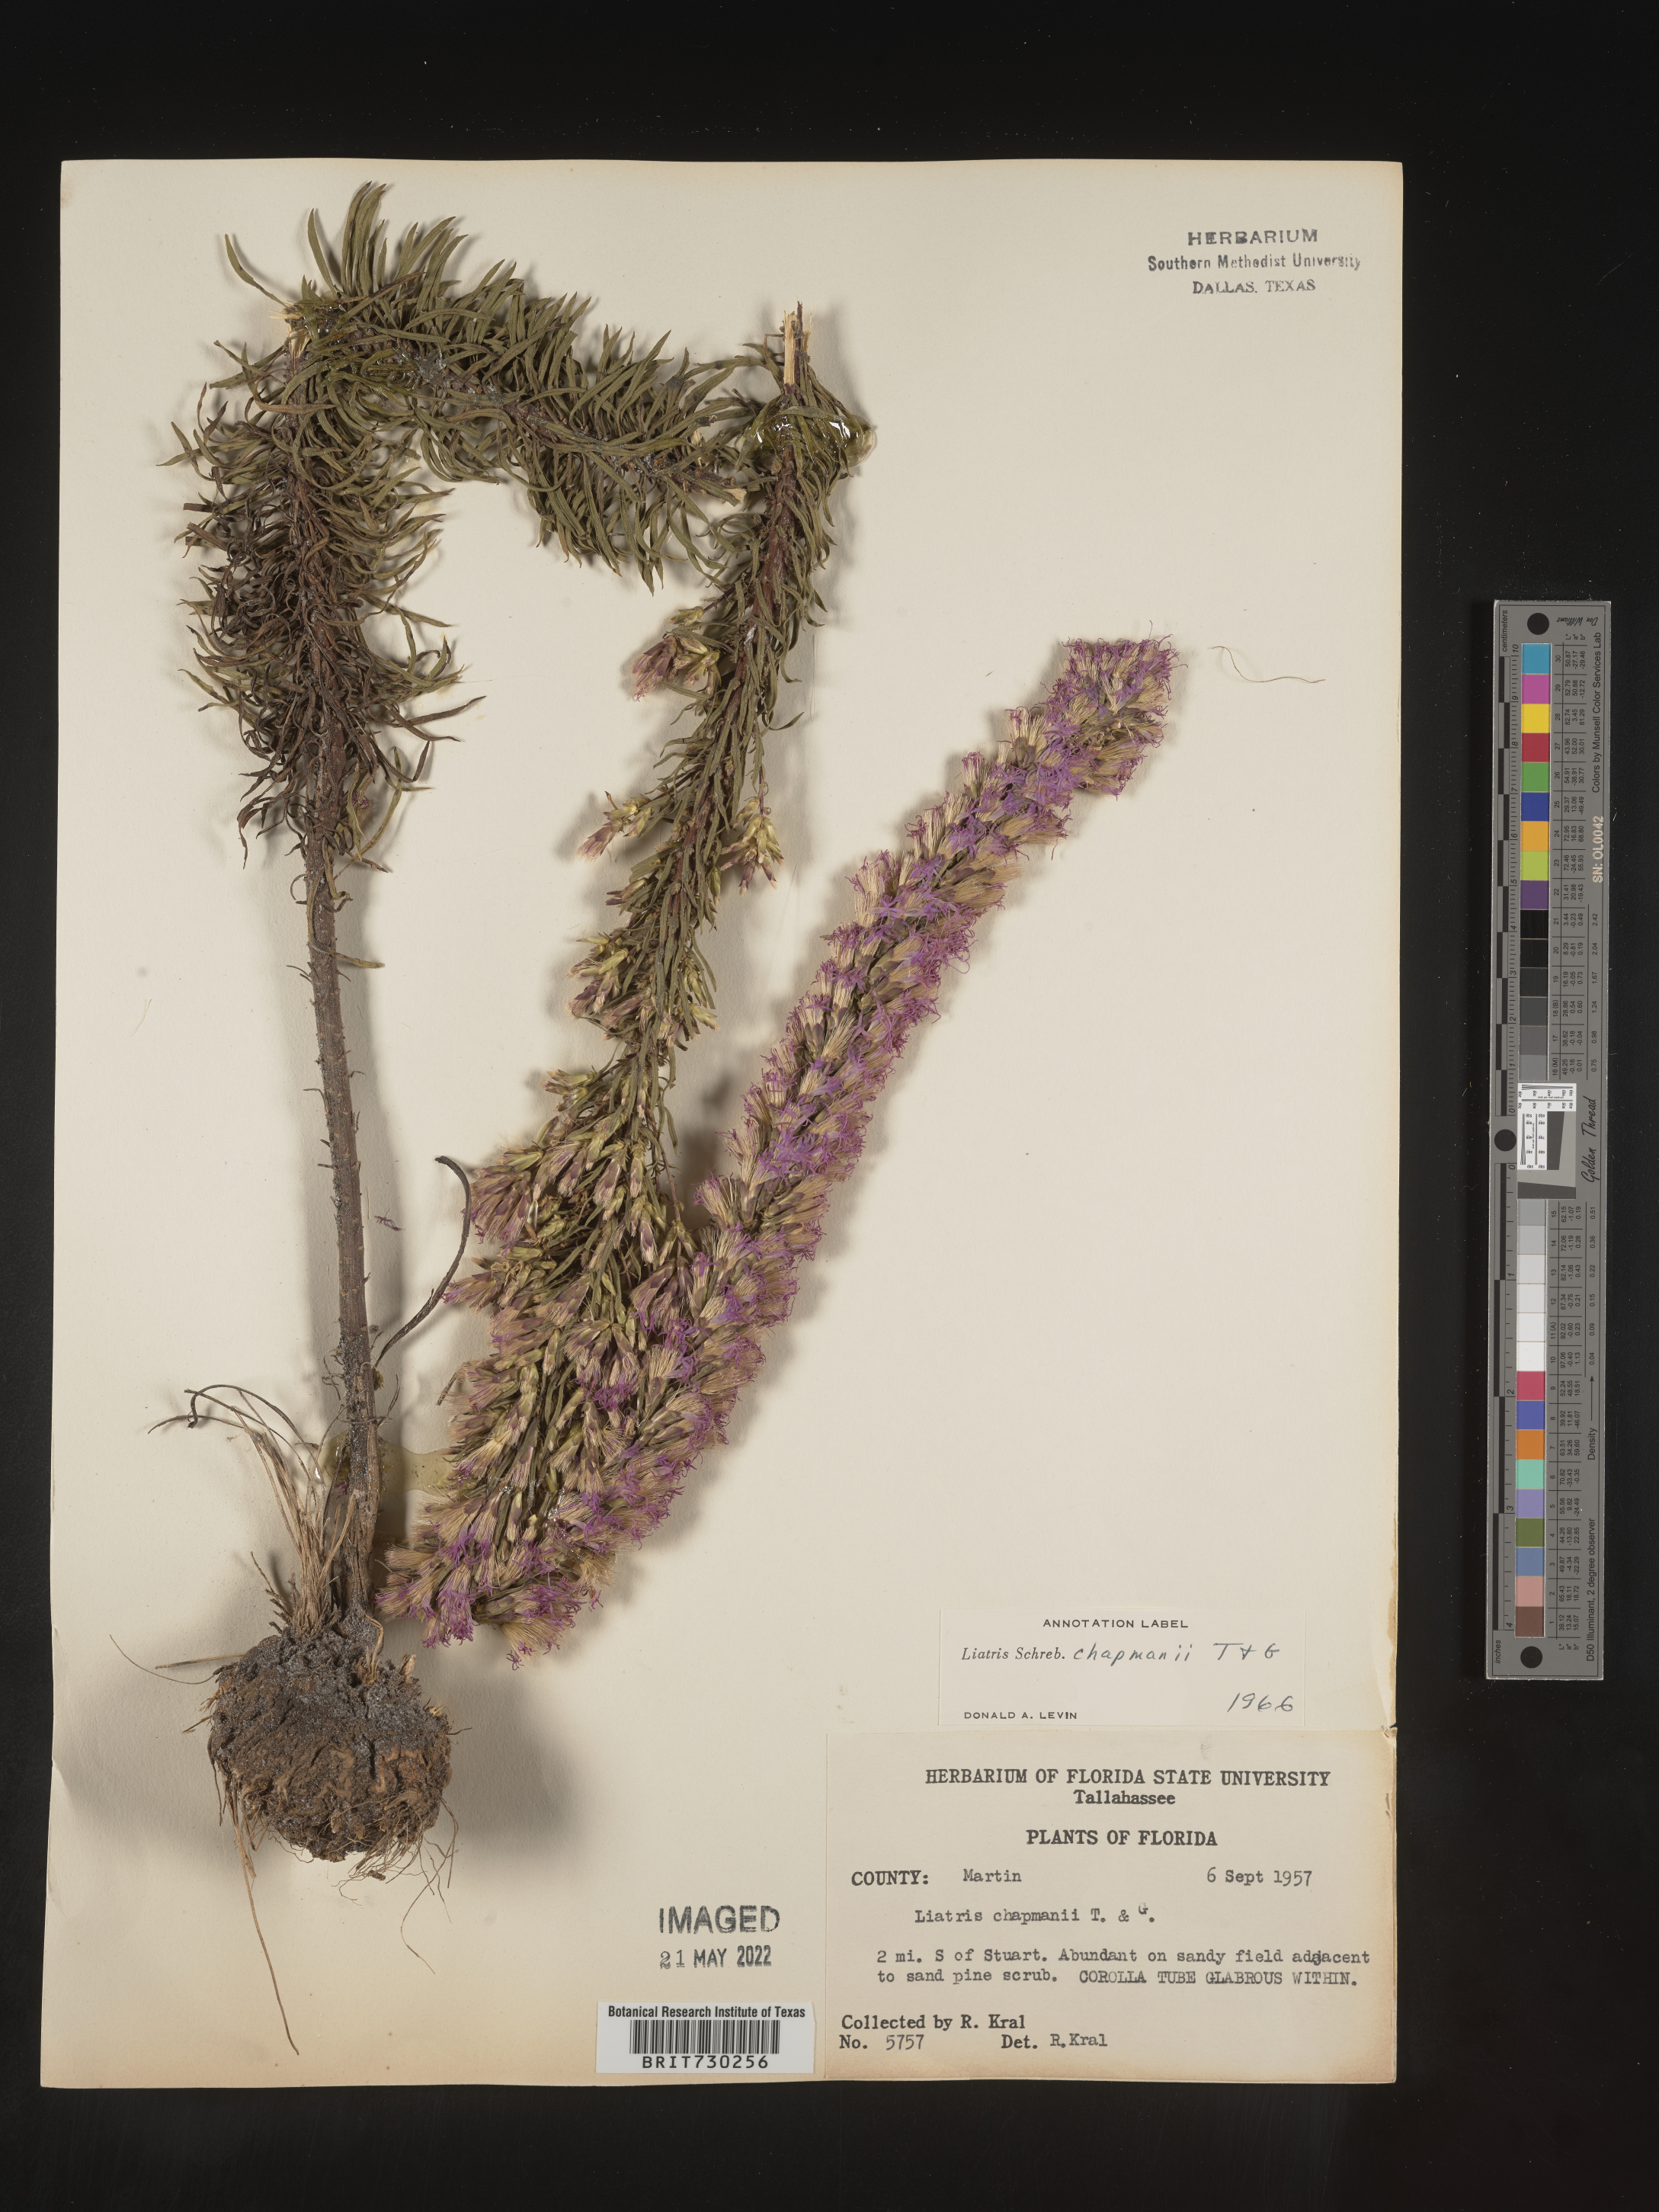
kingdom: Plantae
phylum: Tracheophyta
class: Magnoliopsida
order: Asterales
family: Asteraceae
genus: Liatris
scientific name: Liatris chapmanii
